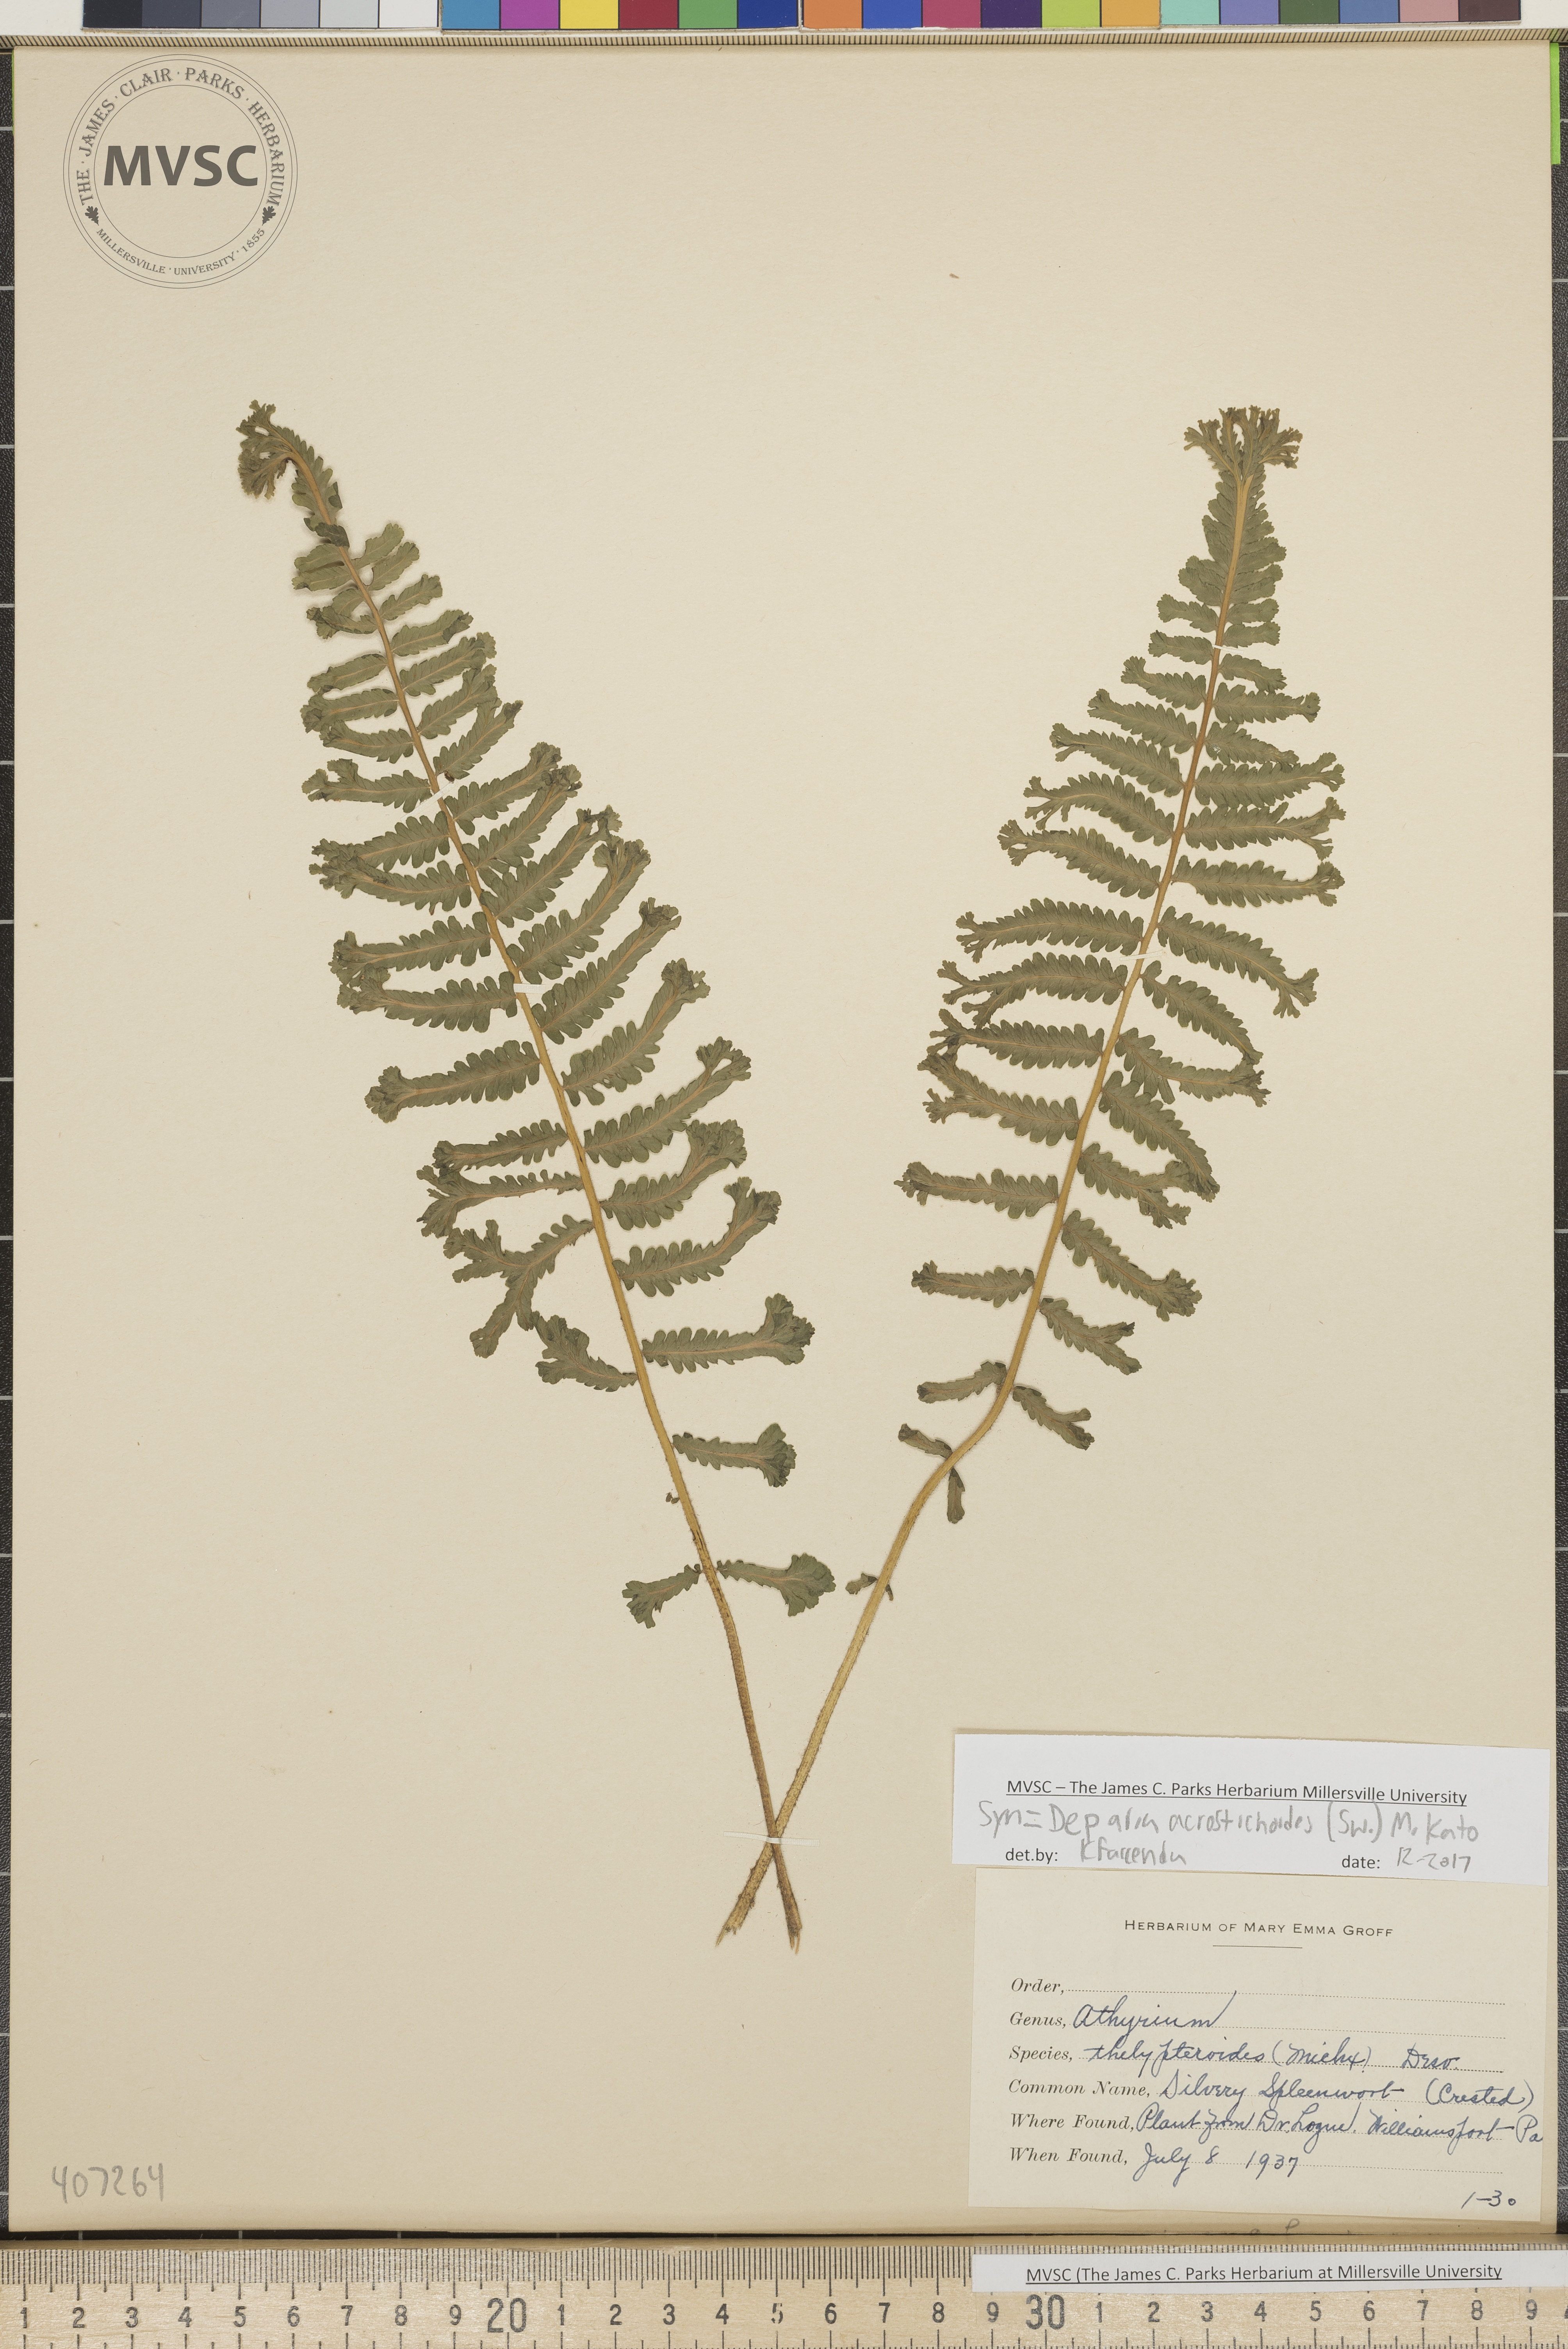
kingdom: Plantae
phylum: Tracheophyta
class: Polypodiopsida
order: Polypodiales
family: Athyriaceae
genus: Deparia
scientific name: Deparia acrostichoides
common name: Silver false spleenwort
